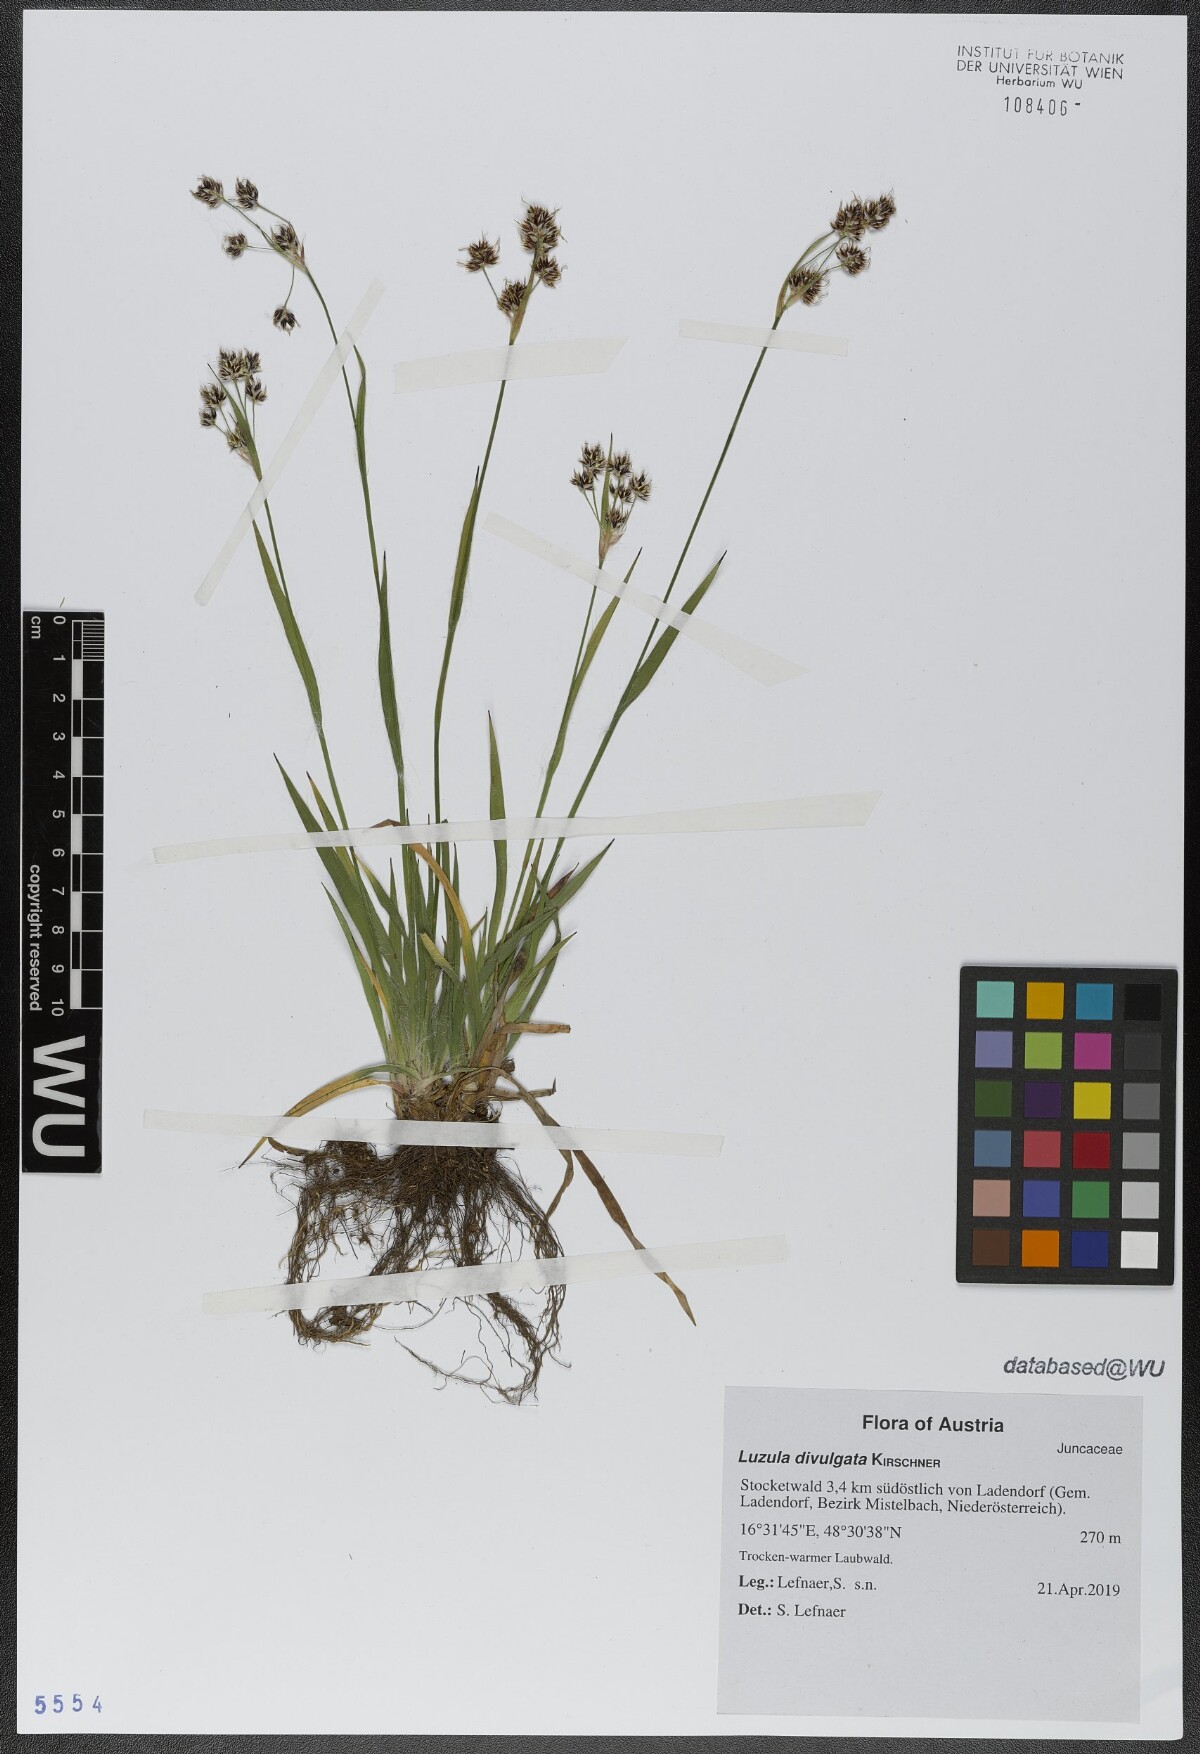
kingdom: Plantae
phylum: Tracheophyta
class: Liliopsida
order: Poales
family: Juncaceae
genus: Luzula
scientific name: Luzula divulgata
